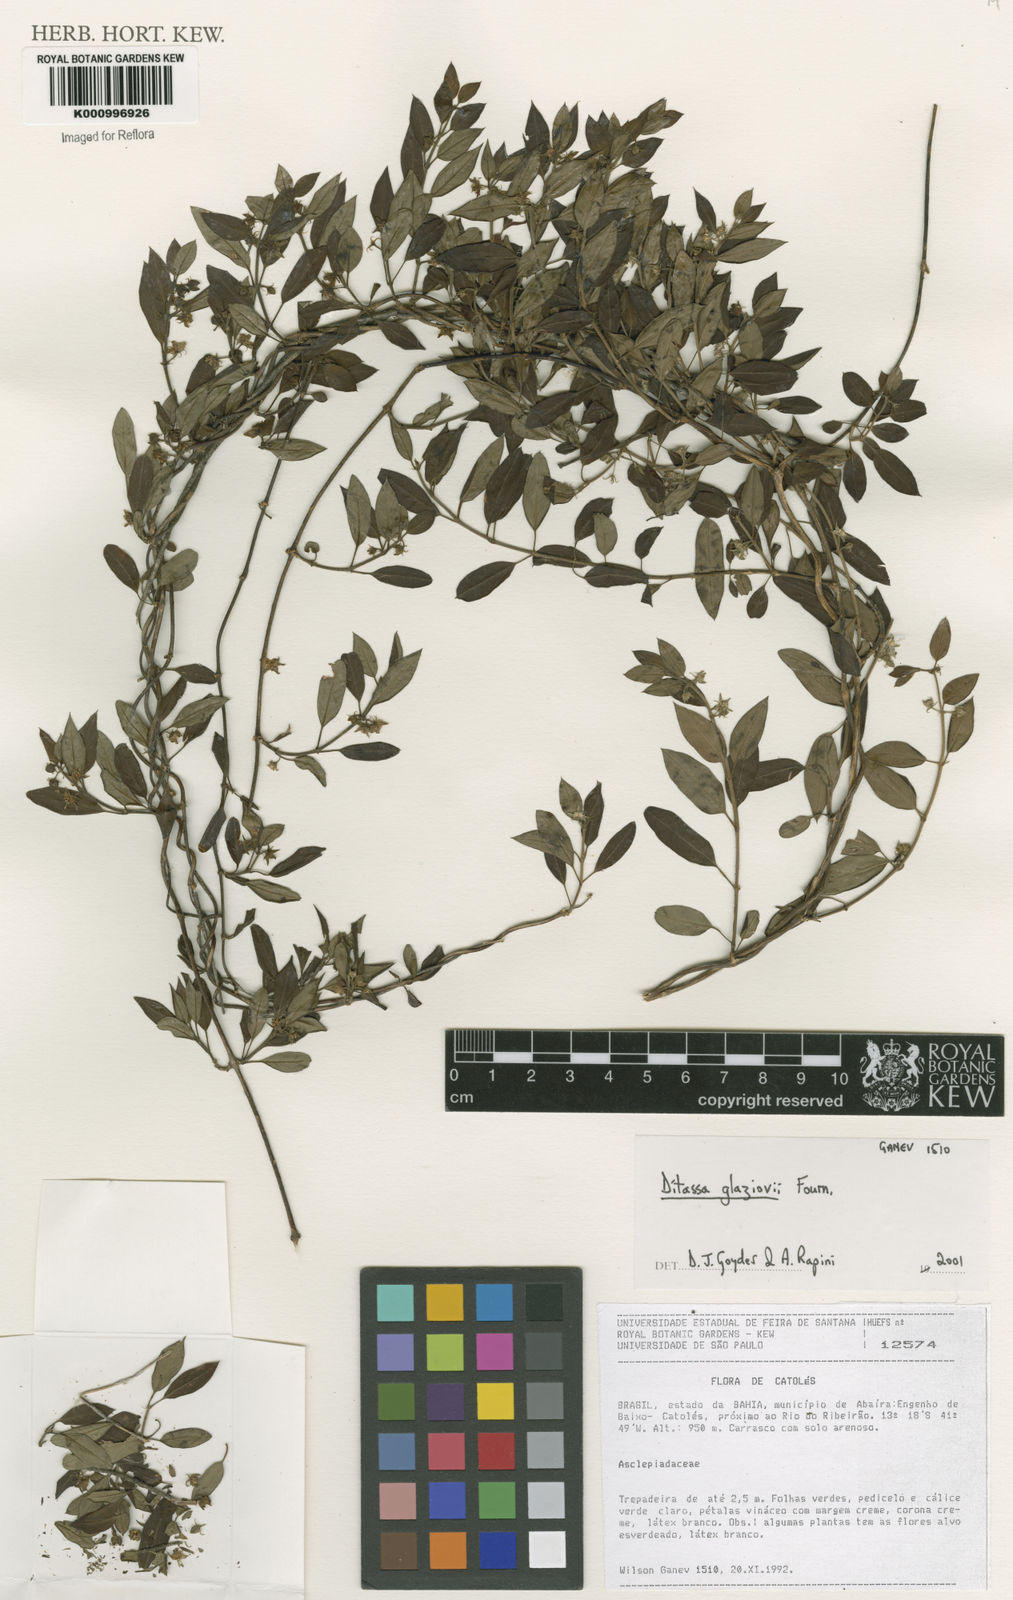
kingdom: Plantae
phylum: Tracheophyta
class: Magnoliopsida
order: Gentianales
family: Apocynaceae
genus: Ditassa
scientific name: Ditassa
